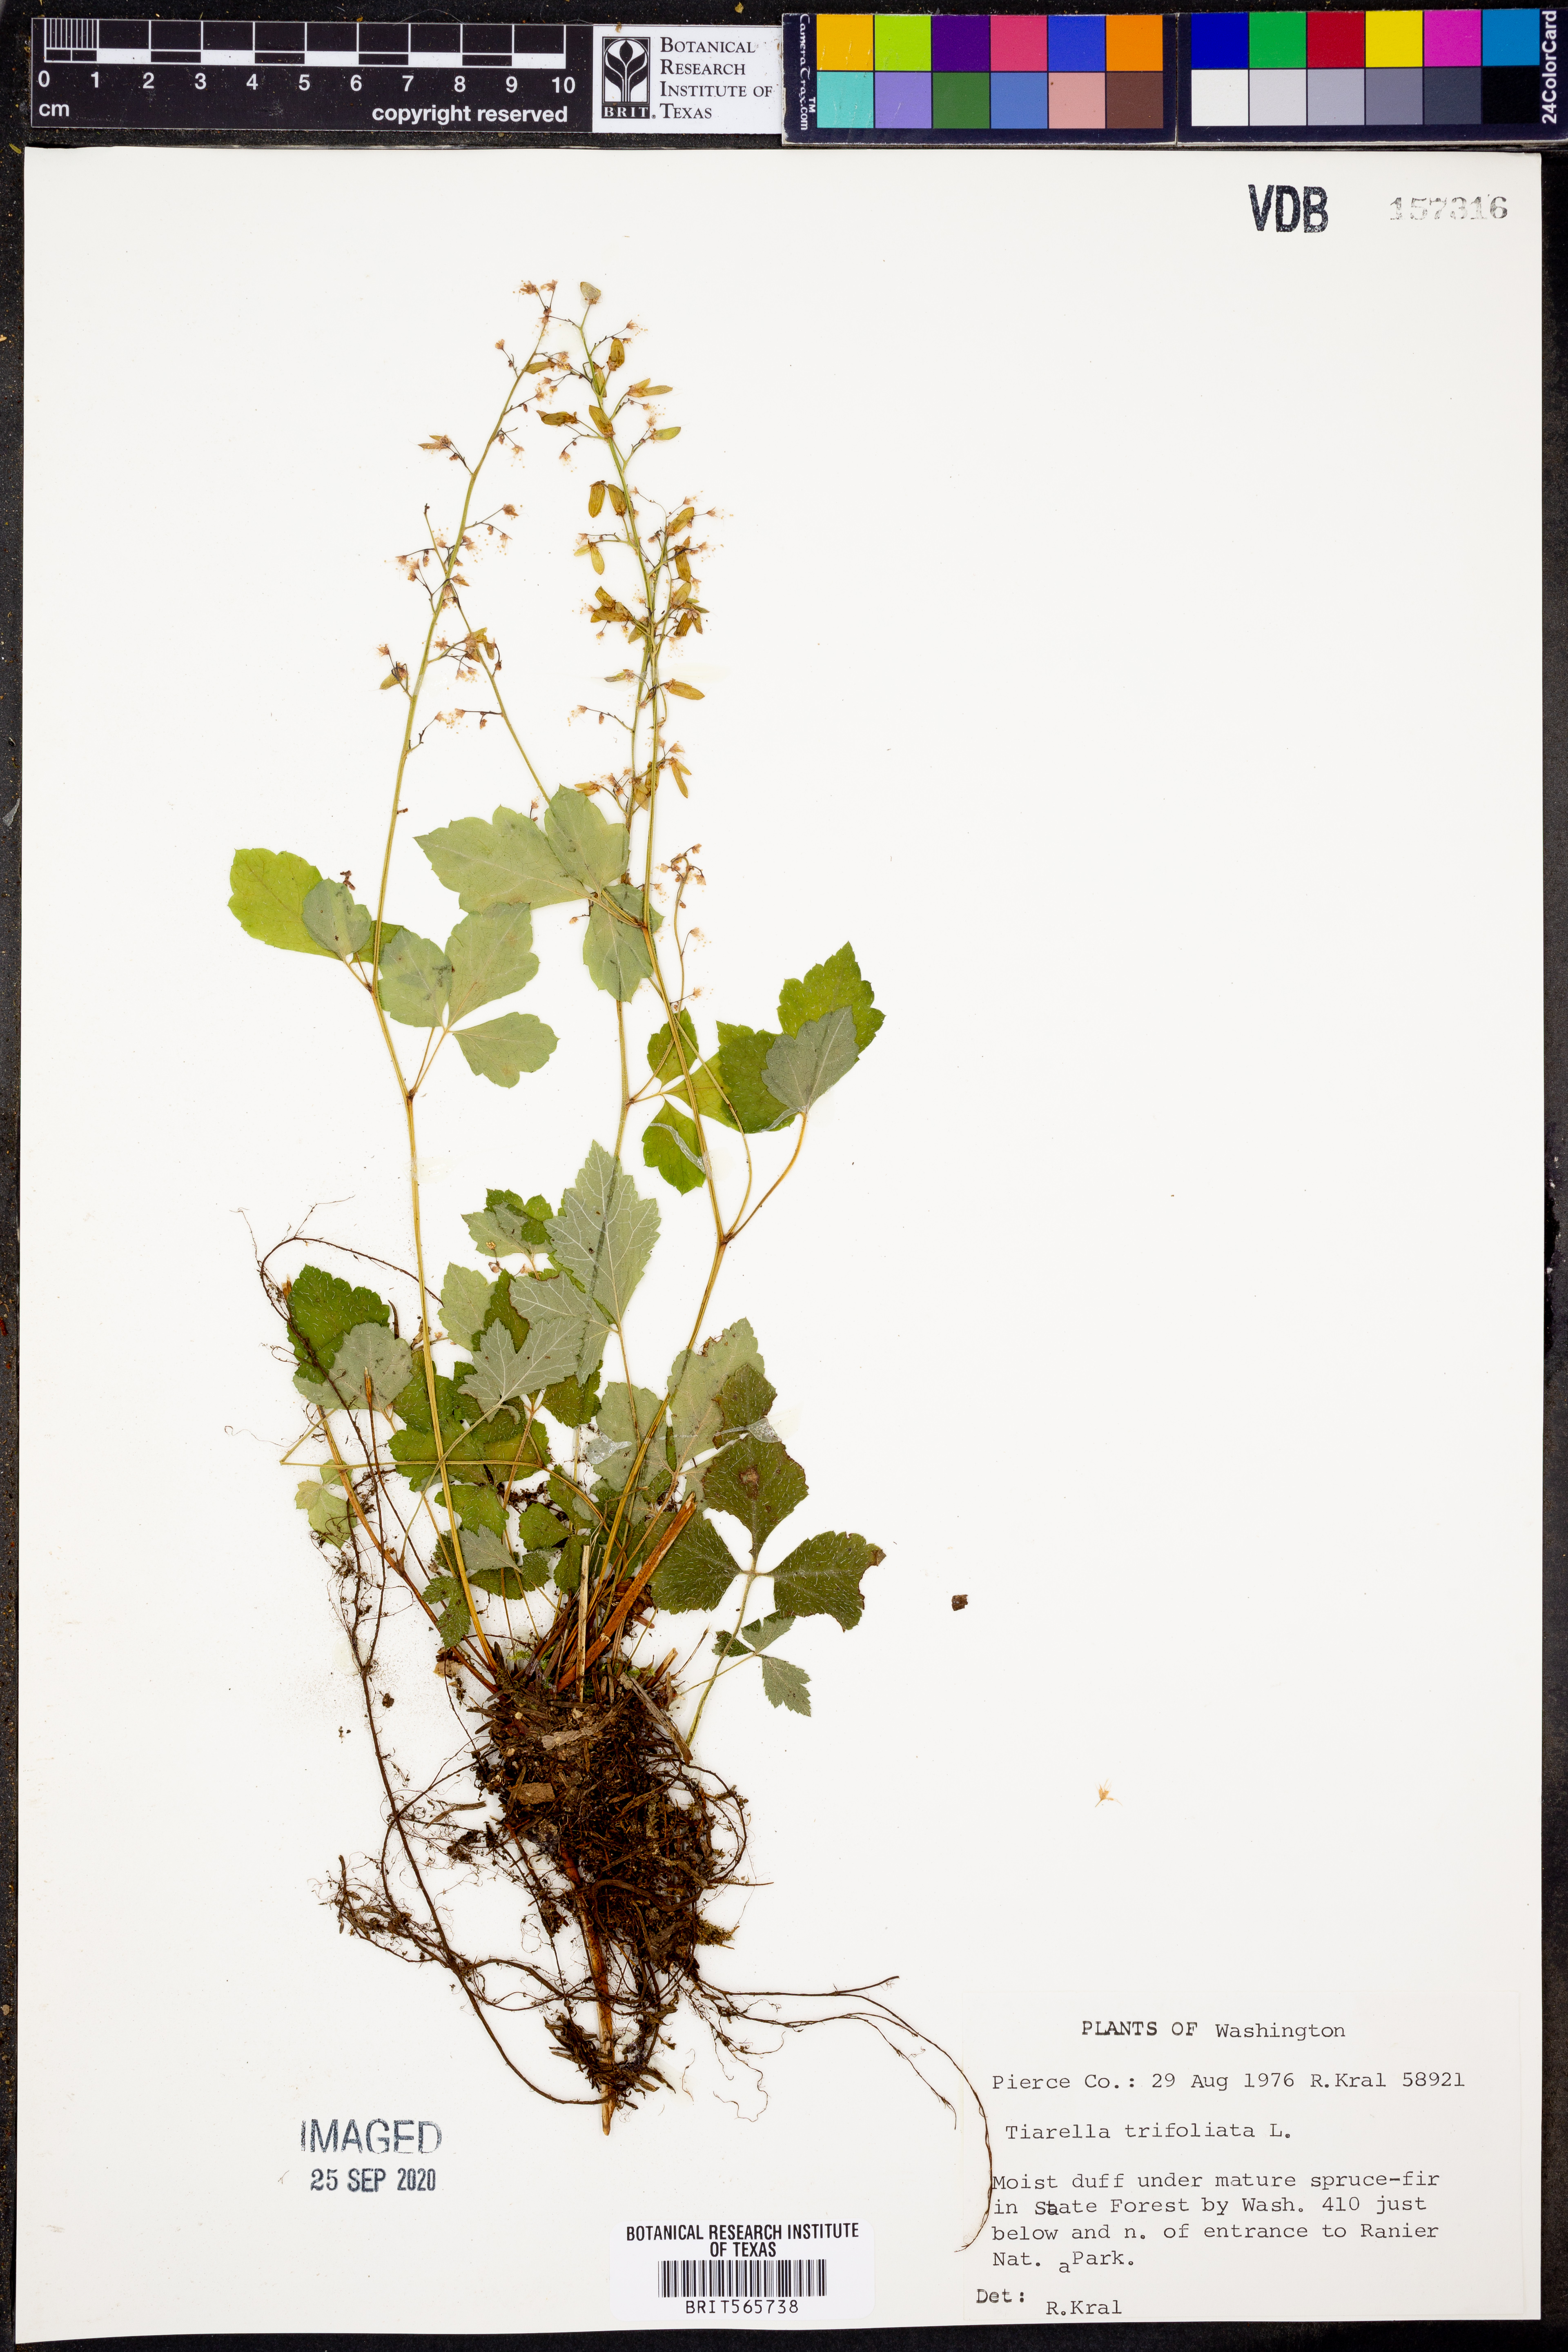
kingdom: Plantae
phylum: Tracheophyta
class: Magnoliopsida
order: Saxifragales
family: Saxifragaceae
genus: Tiarella
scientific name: Tiarella trifoliata
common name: Sugar-scoop
